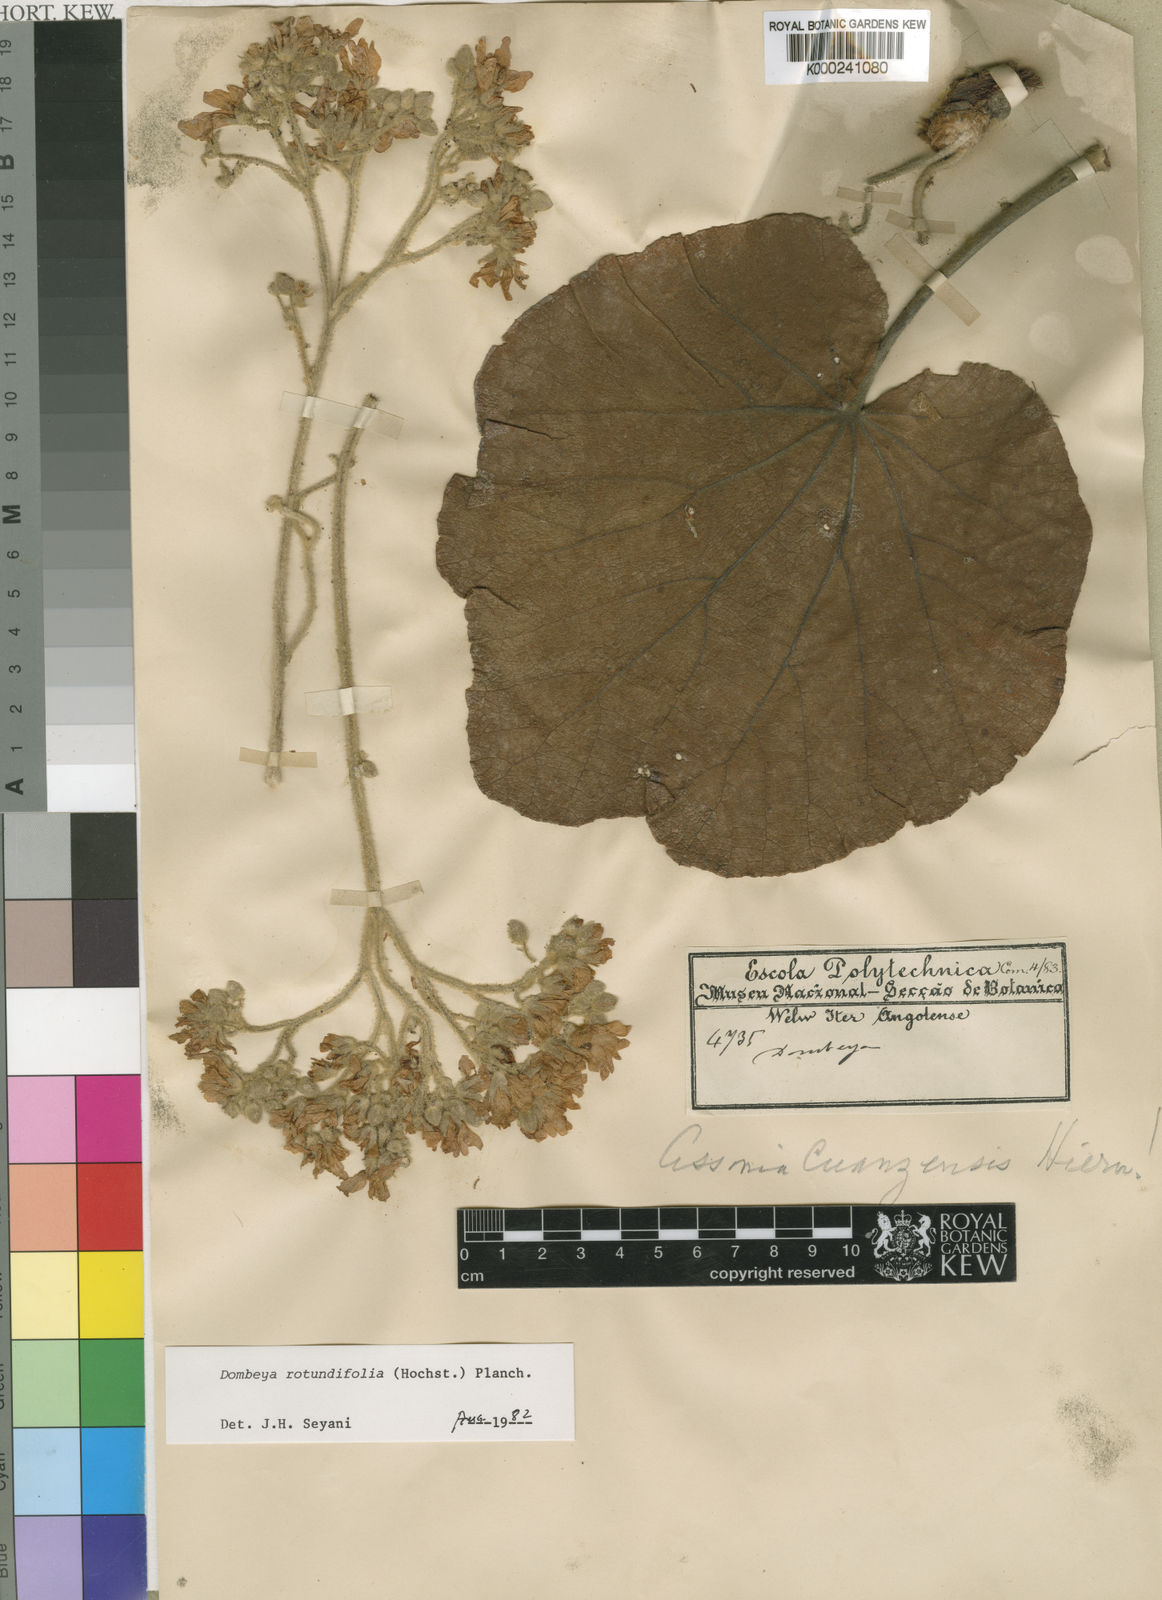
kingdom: Plantae
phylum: Tracheophyta
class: Magnoliopsida
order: Malvales
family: Malvaceae
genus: Dombeya
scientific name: Dombeya rotundifolia
